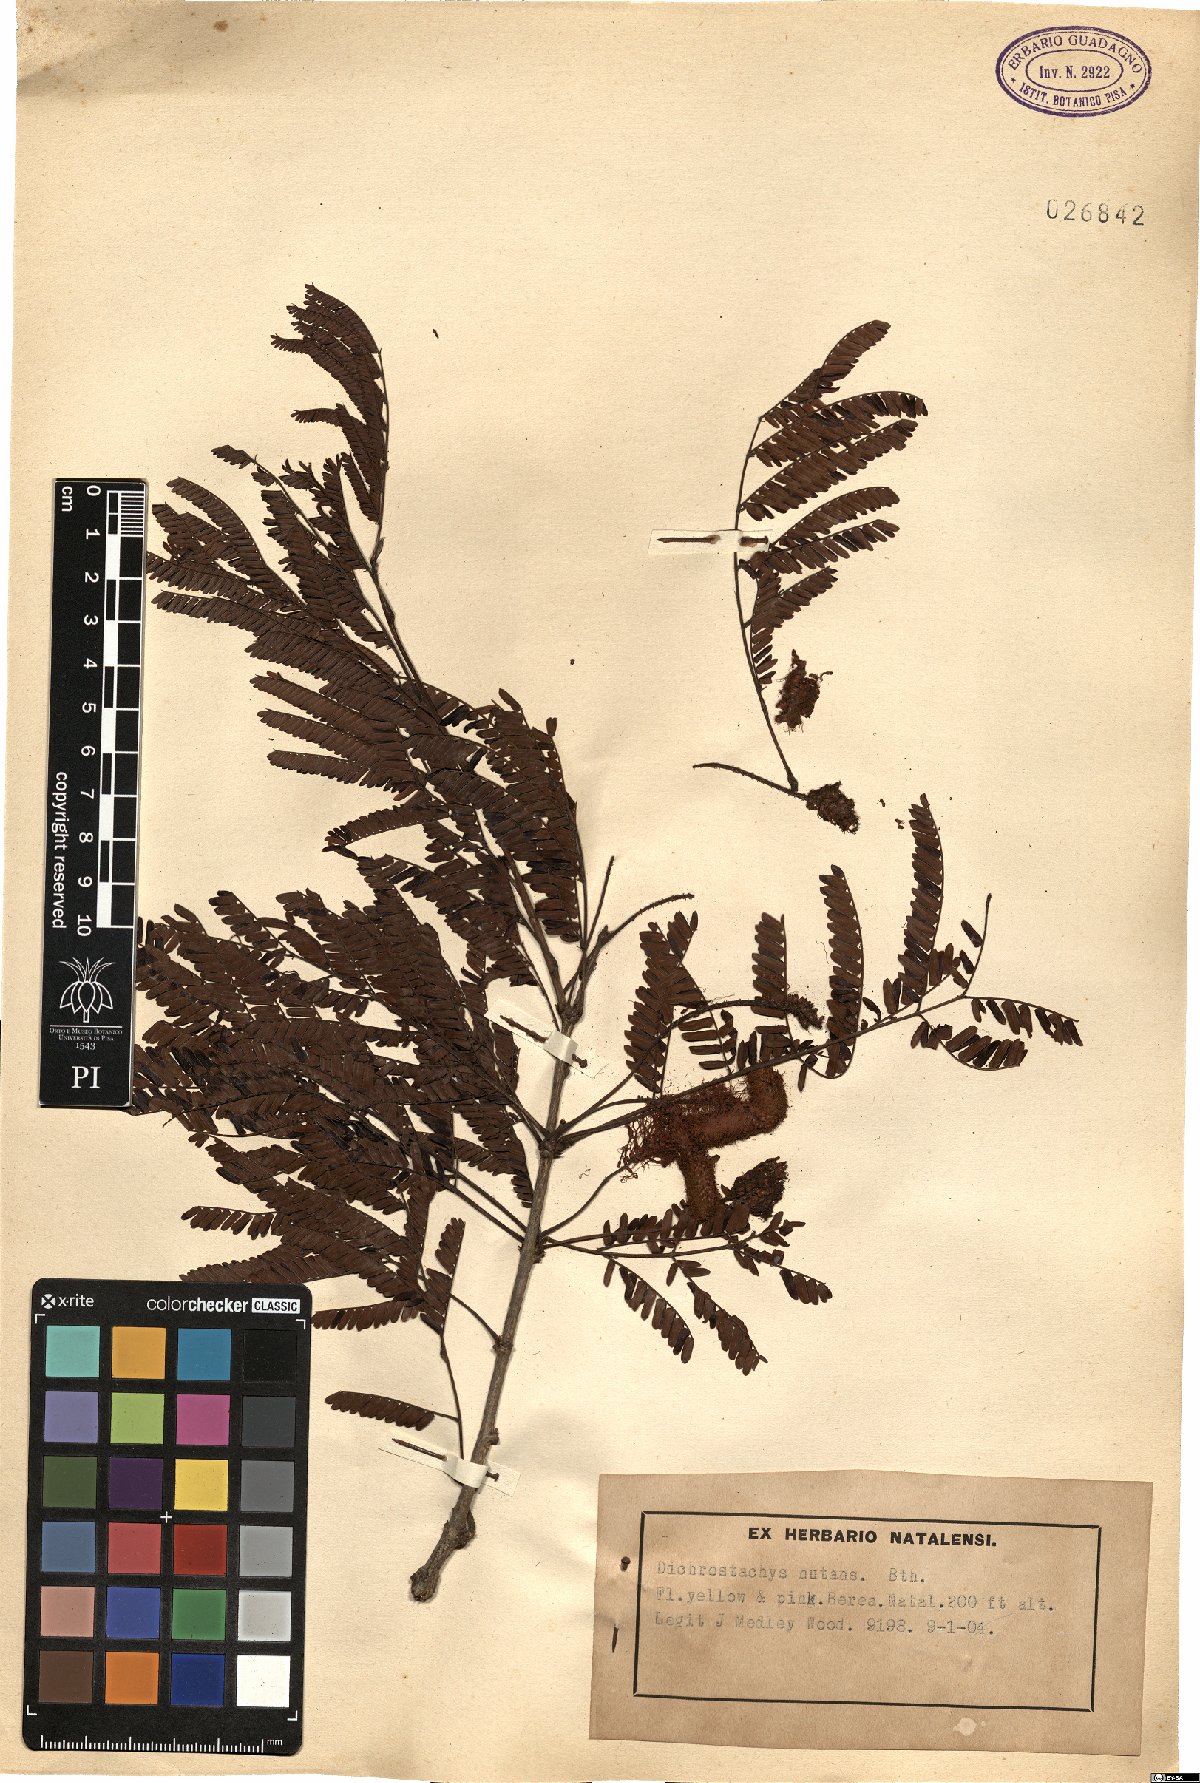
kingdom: Plantae
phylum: Tracheophyta
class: Magnoliopsida
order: Fabales
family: Fabaceae
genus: Dichrostachys
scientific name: Dichrostachys cinerea
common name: Sicklebush
